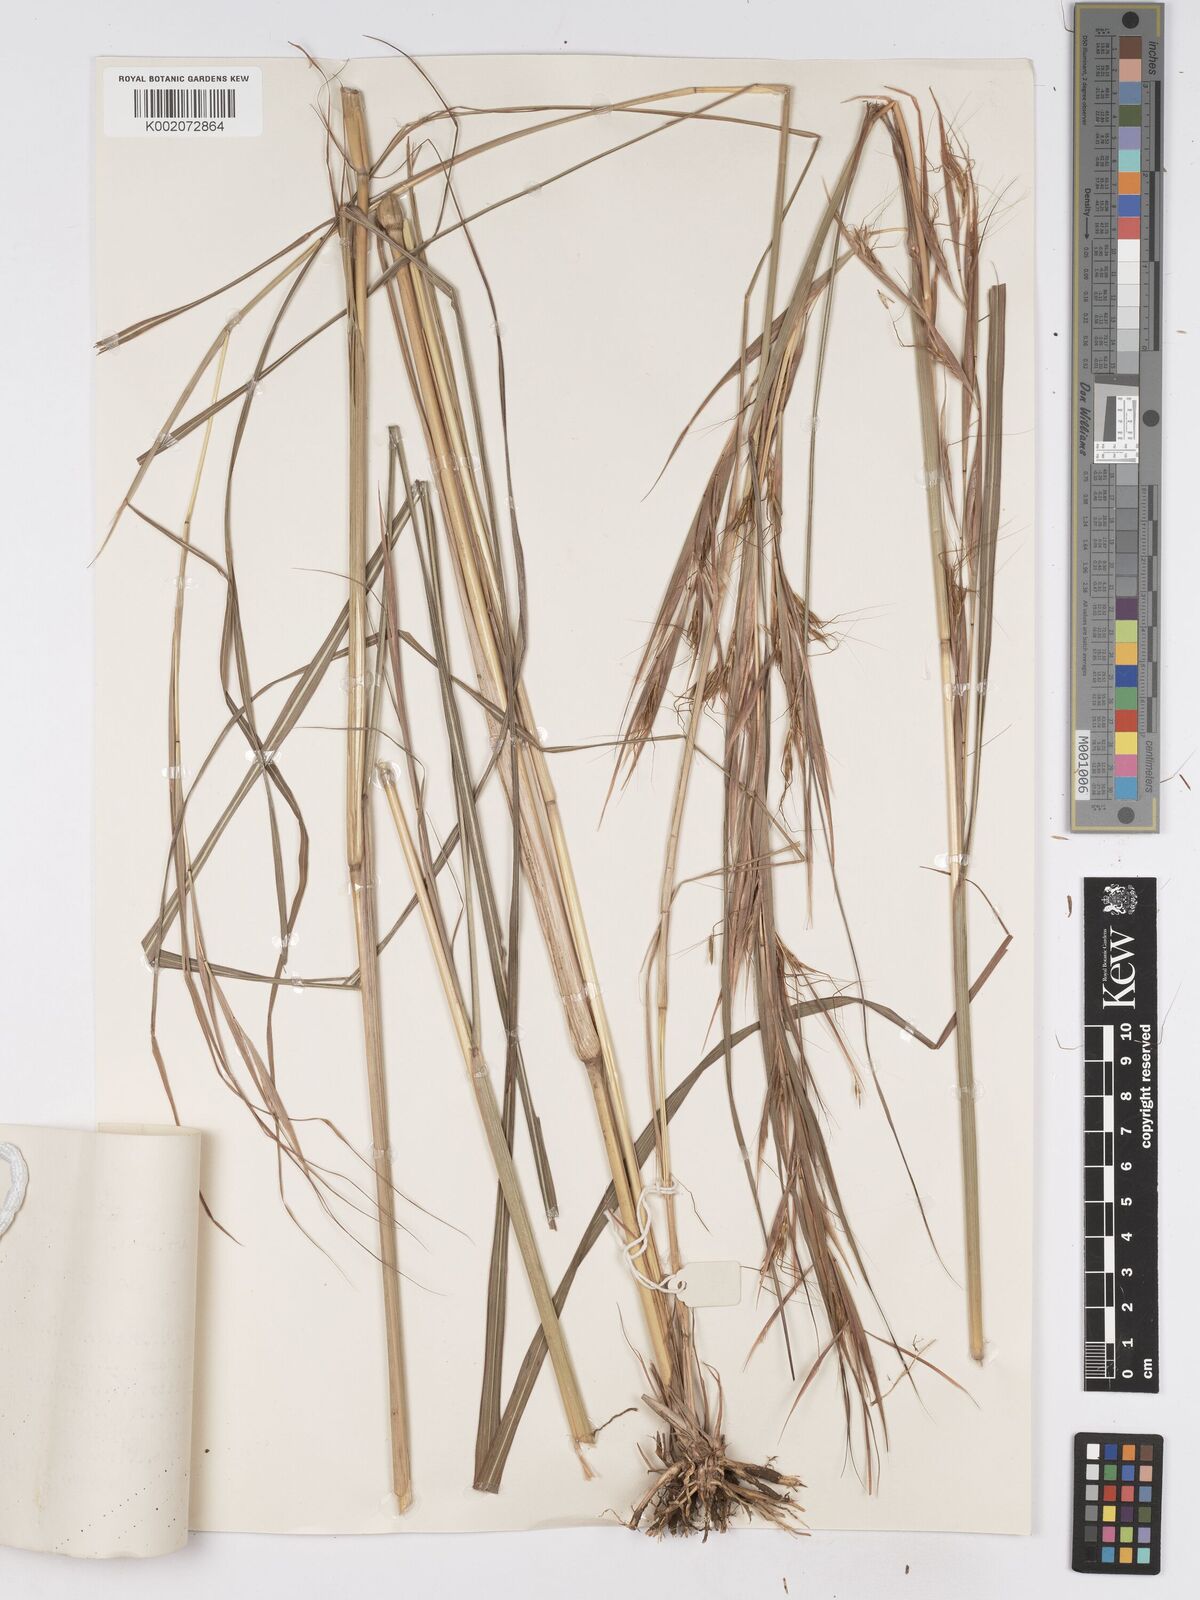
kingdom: Plantae
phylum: Tracheophyta
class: Liliopsida
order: Poales
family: Poaceae
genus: Hyparrhenia
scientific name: Hyparrhenia rufa
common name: Jaraguagrass
